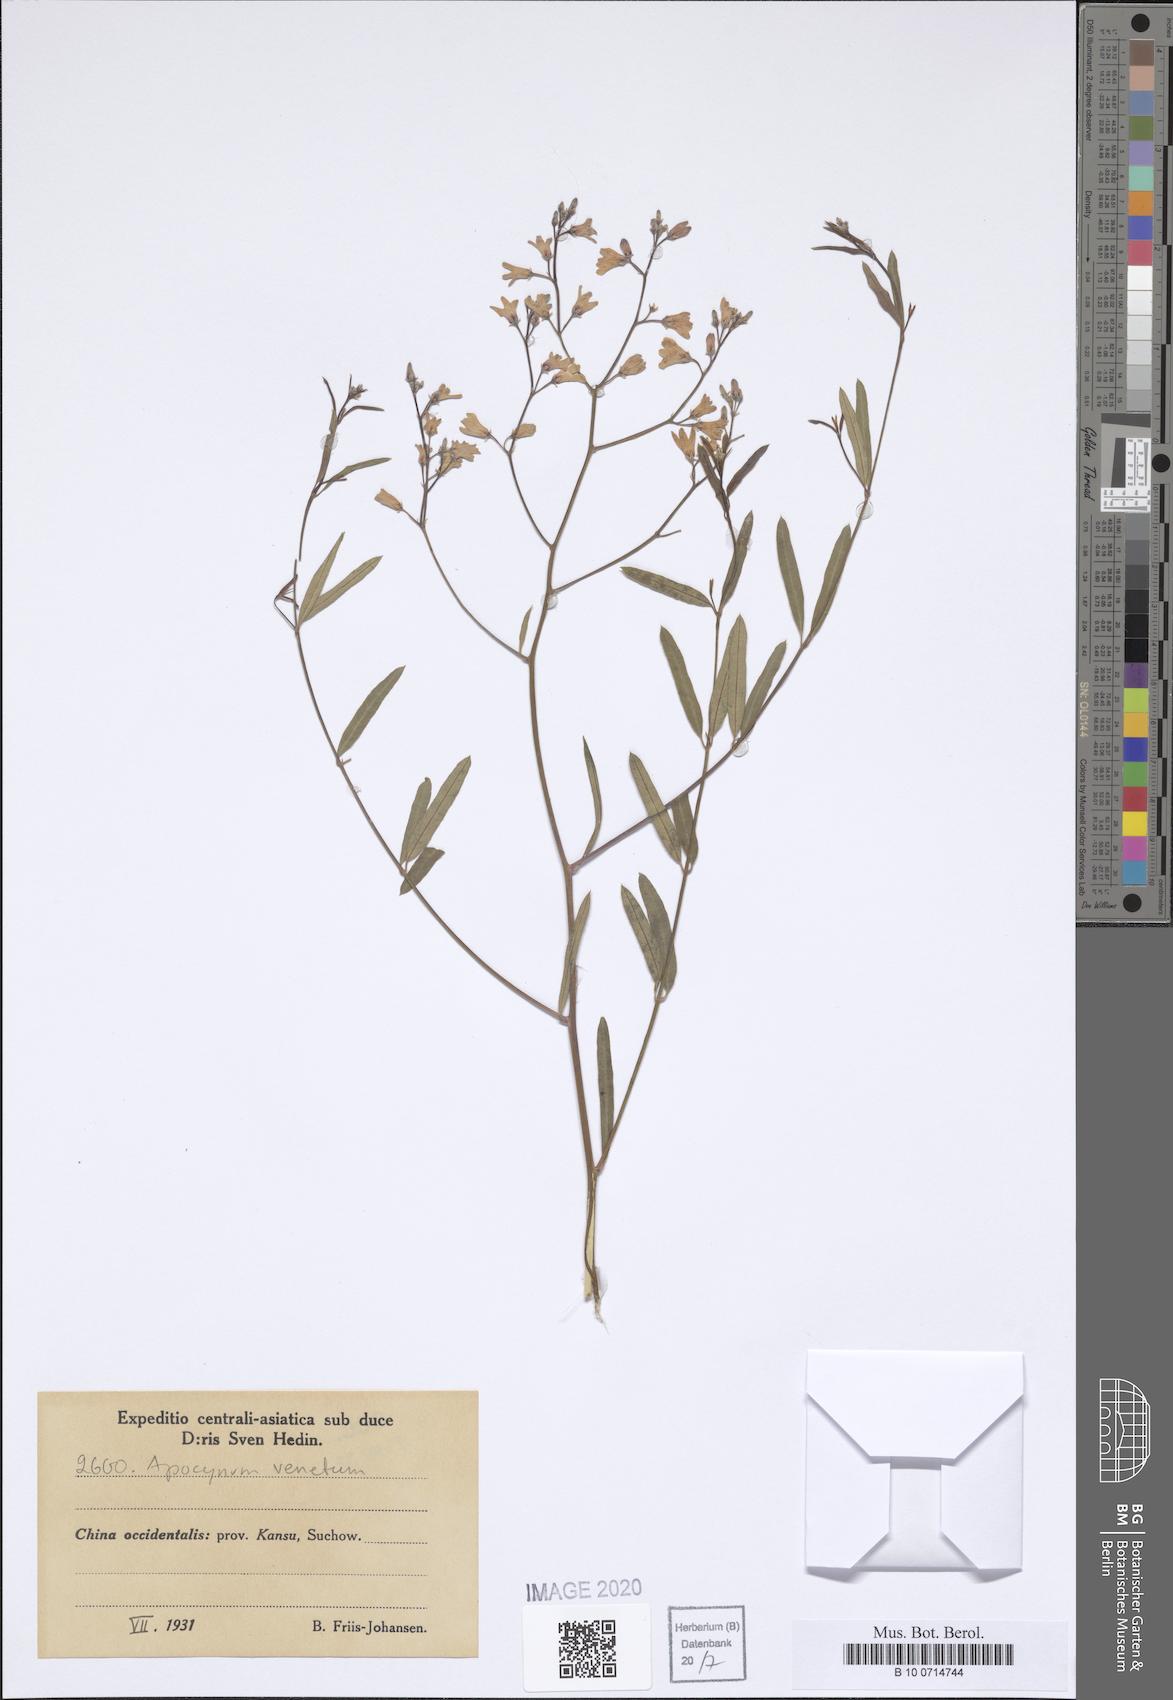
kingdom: Plantae
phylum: Tracheophyta
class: Magnoliopsida
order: Gentianales
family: Apocynaceae
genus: Poacynum
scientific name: Poacynum venetum
